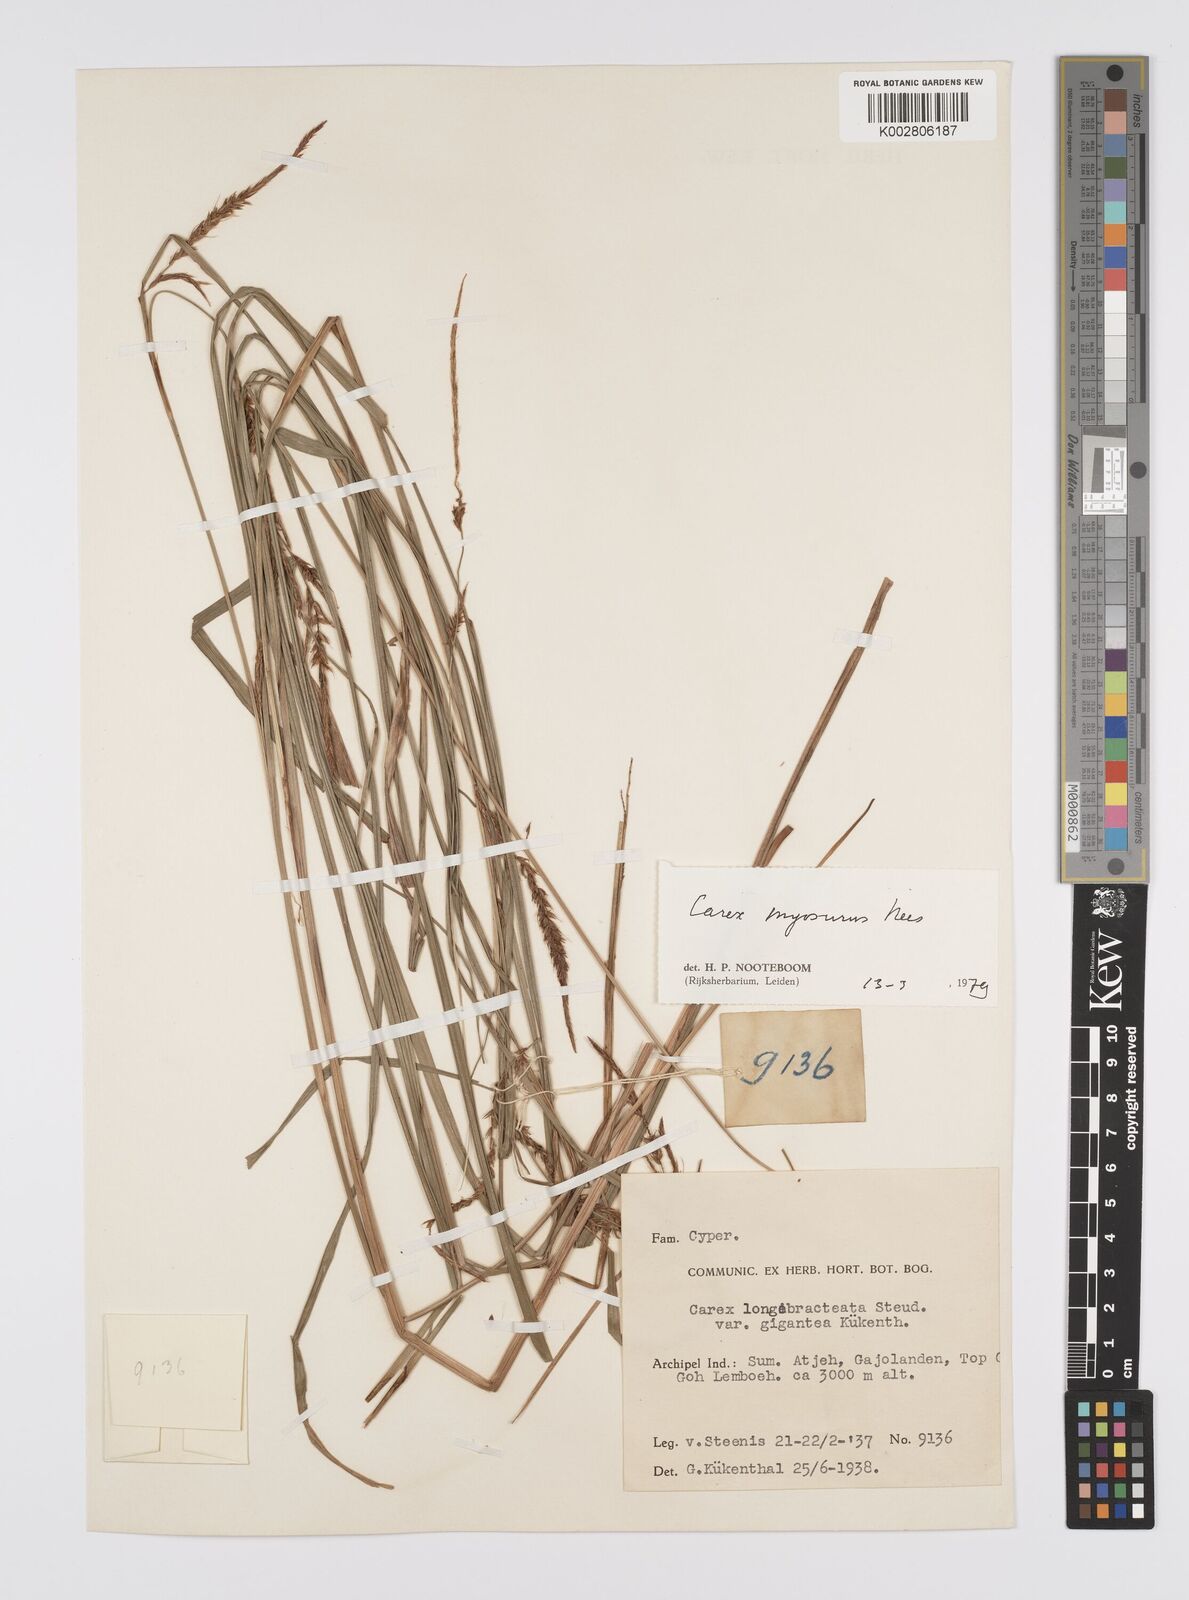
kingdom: Plantae
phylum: Tracheophyta
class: Liliopsida
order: Poales
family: Cyperaceae
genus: Carex
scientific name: Carex myosurus
